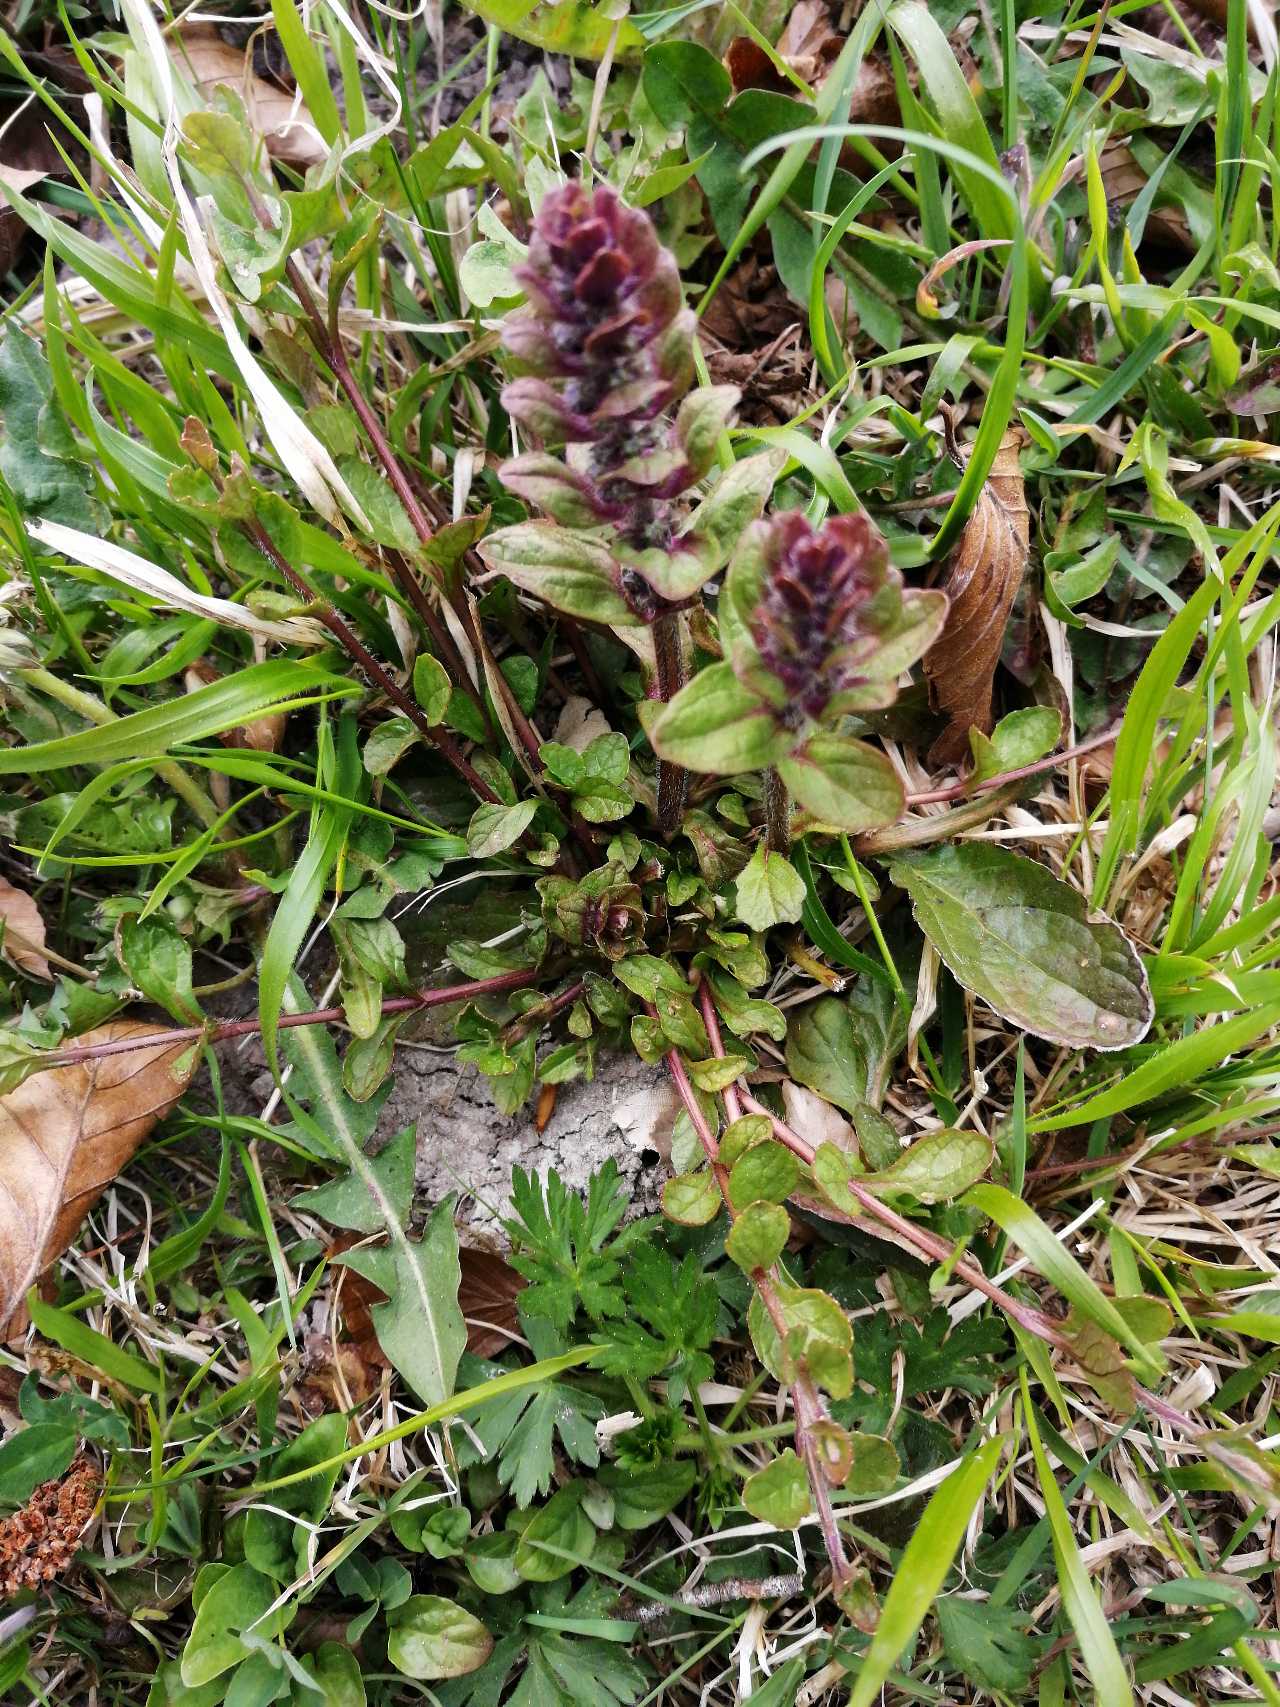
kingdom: Plantae
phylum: Tracheophyta
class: Magnoliopsida
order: Lamiales
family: Lamiaceae
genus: Ajuga
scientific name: Ajuga reptans
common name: Krybende læbeløs
